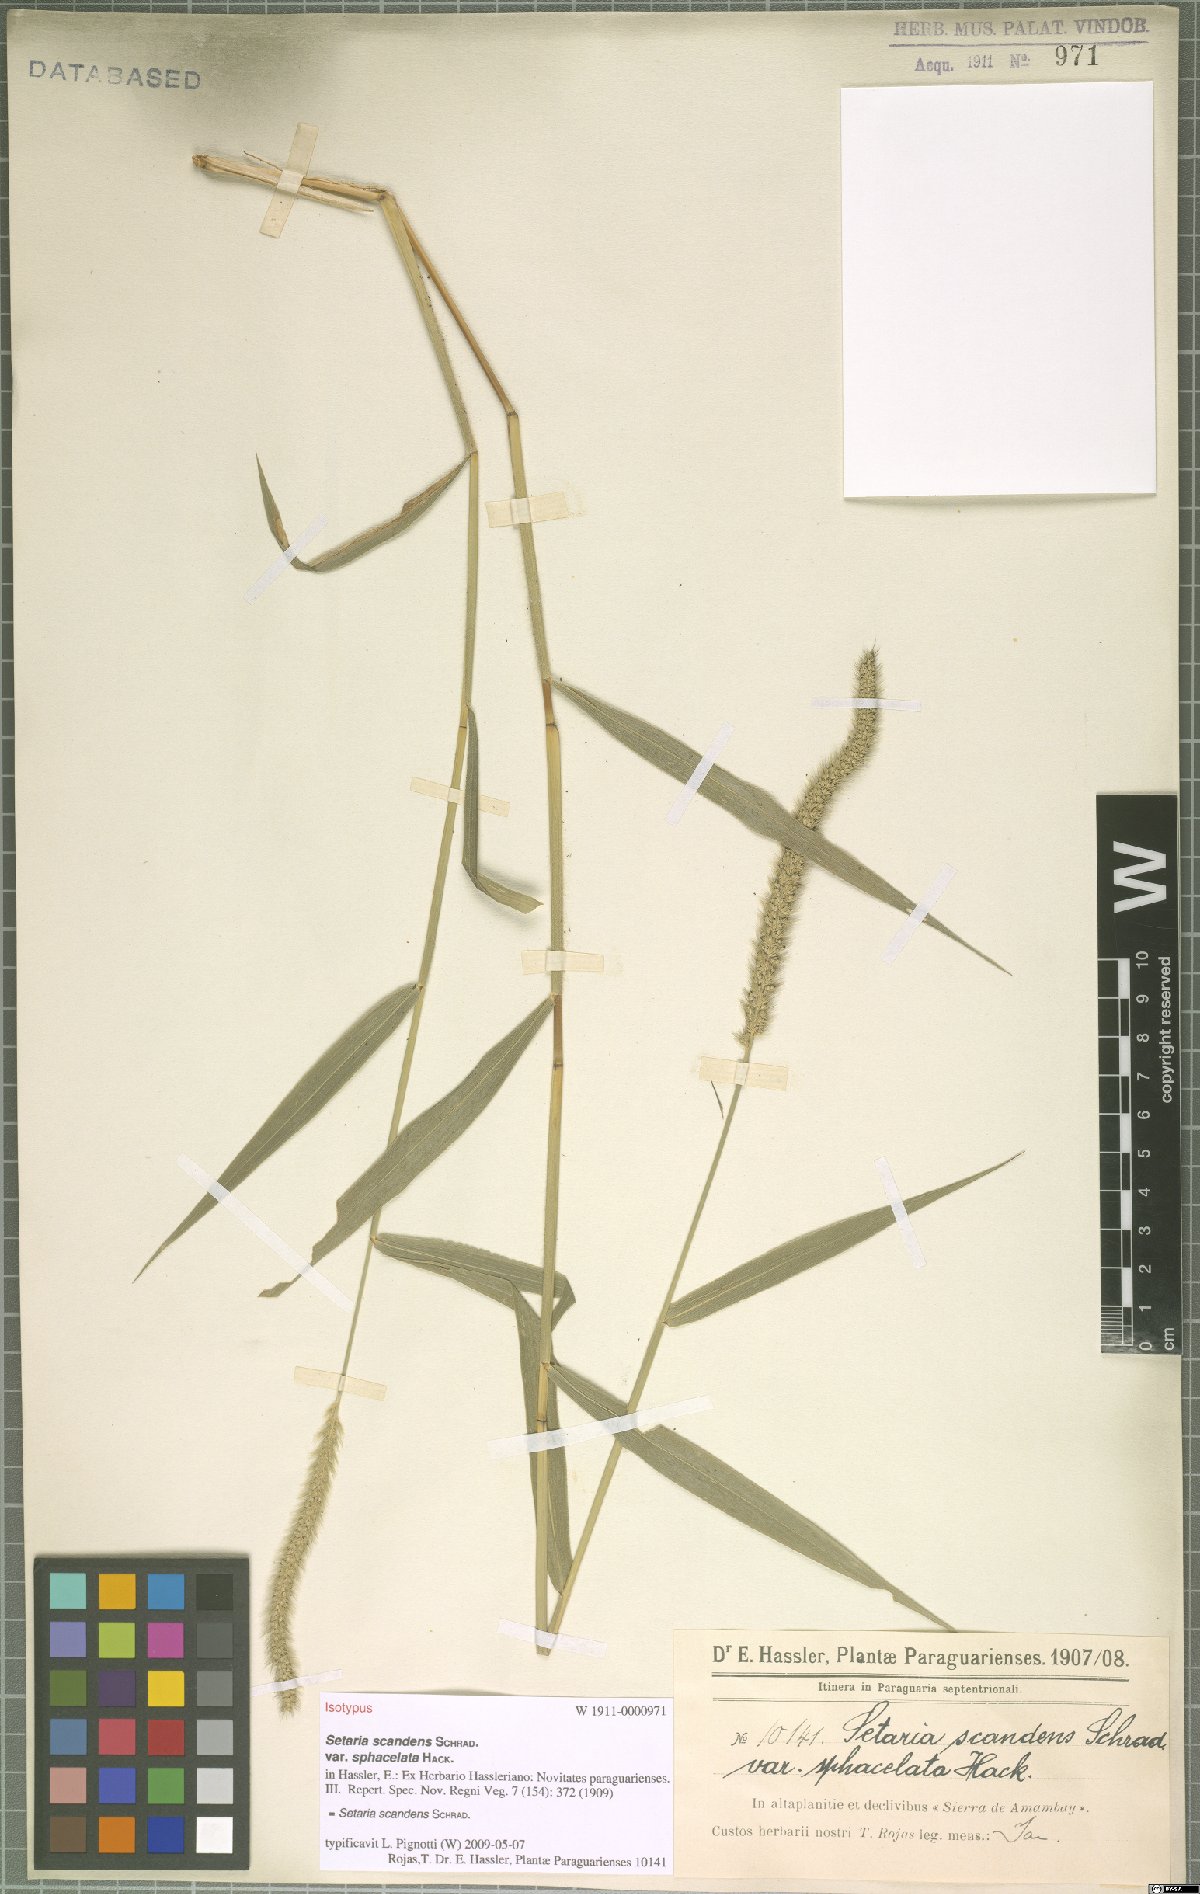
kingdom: Plantae
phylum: Tracheophyta
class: Liliopsida
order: Poales
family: Poaceae
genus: Setaria
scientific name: Setaria scandens
